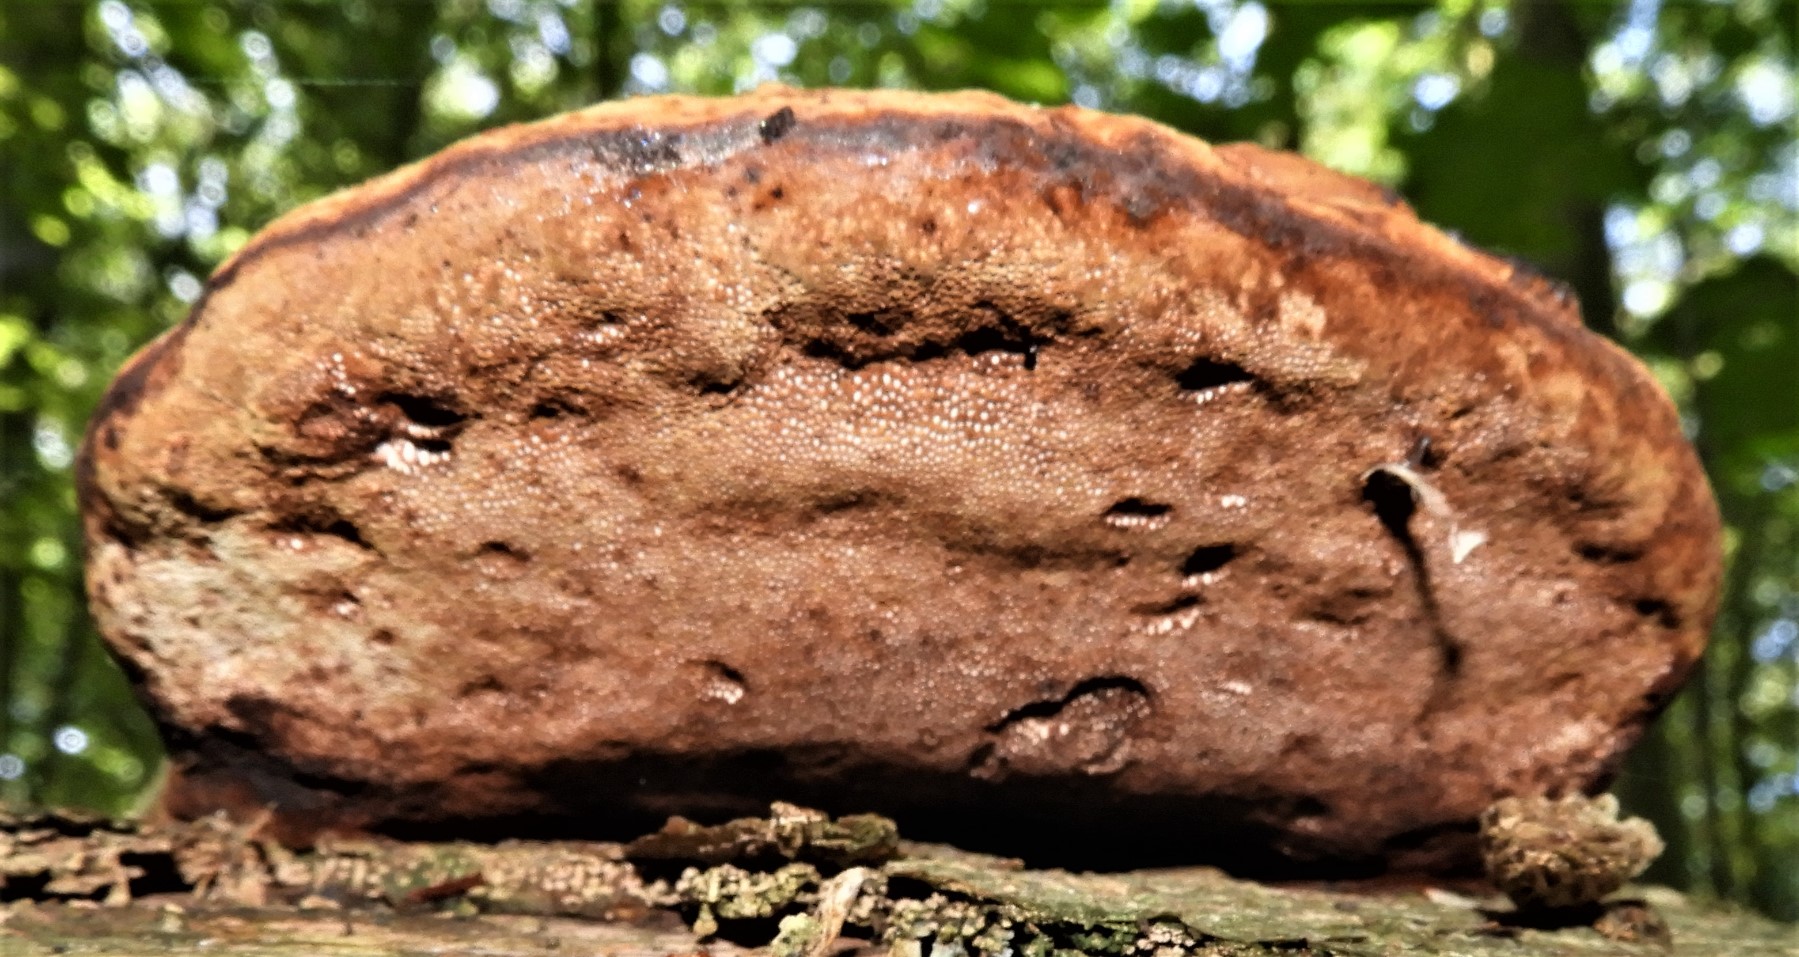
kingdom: Fungi
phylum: Basidiomycota
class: Agaricomycetes
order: Polyporales
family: Polyporaceae
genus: Fomes
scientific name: Fomes fomentarius
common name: tøndersvamp
